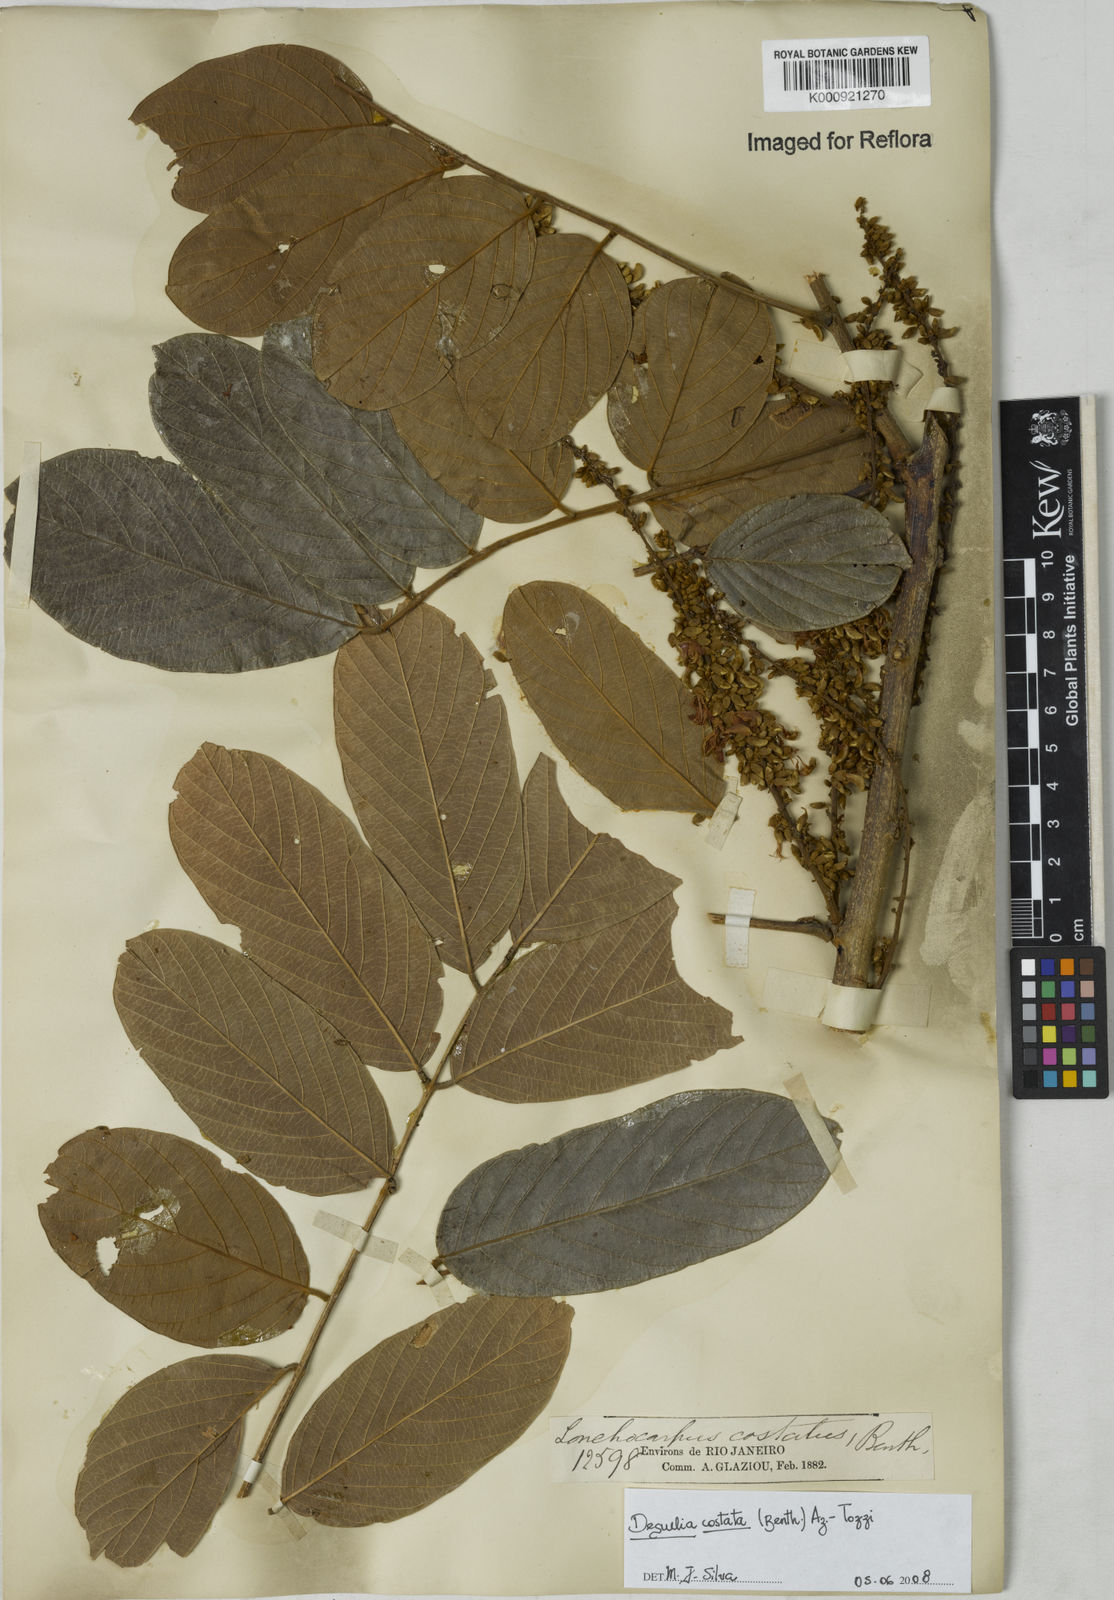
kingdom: Plantae
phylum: Tracheophyta
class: Magnoliopsida
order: Fabales
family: Fabaceae
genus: Deguelia
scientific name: Deguelia costata
